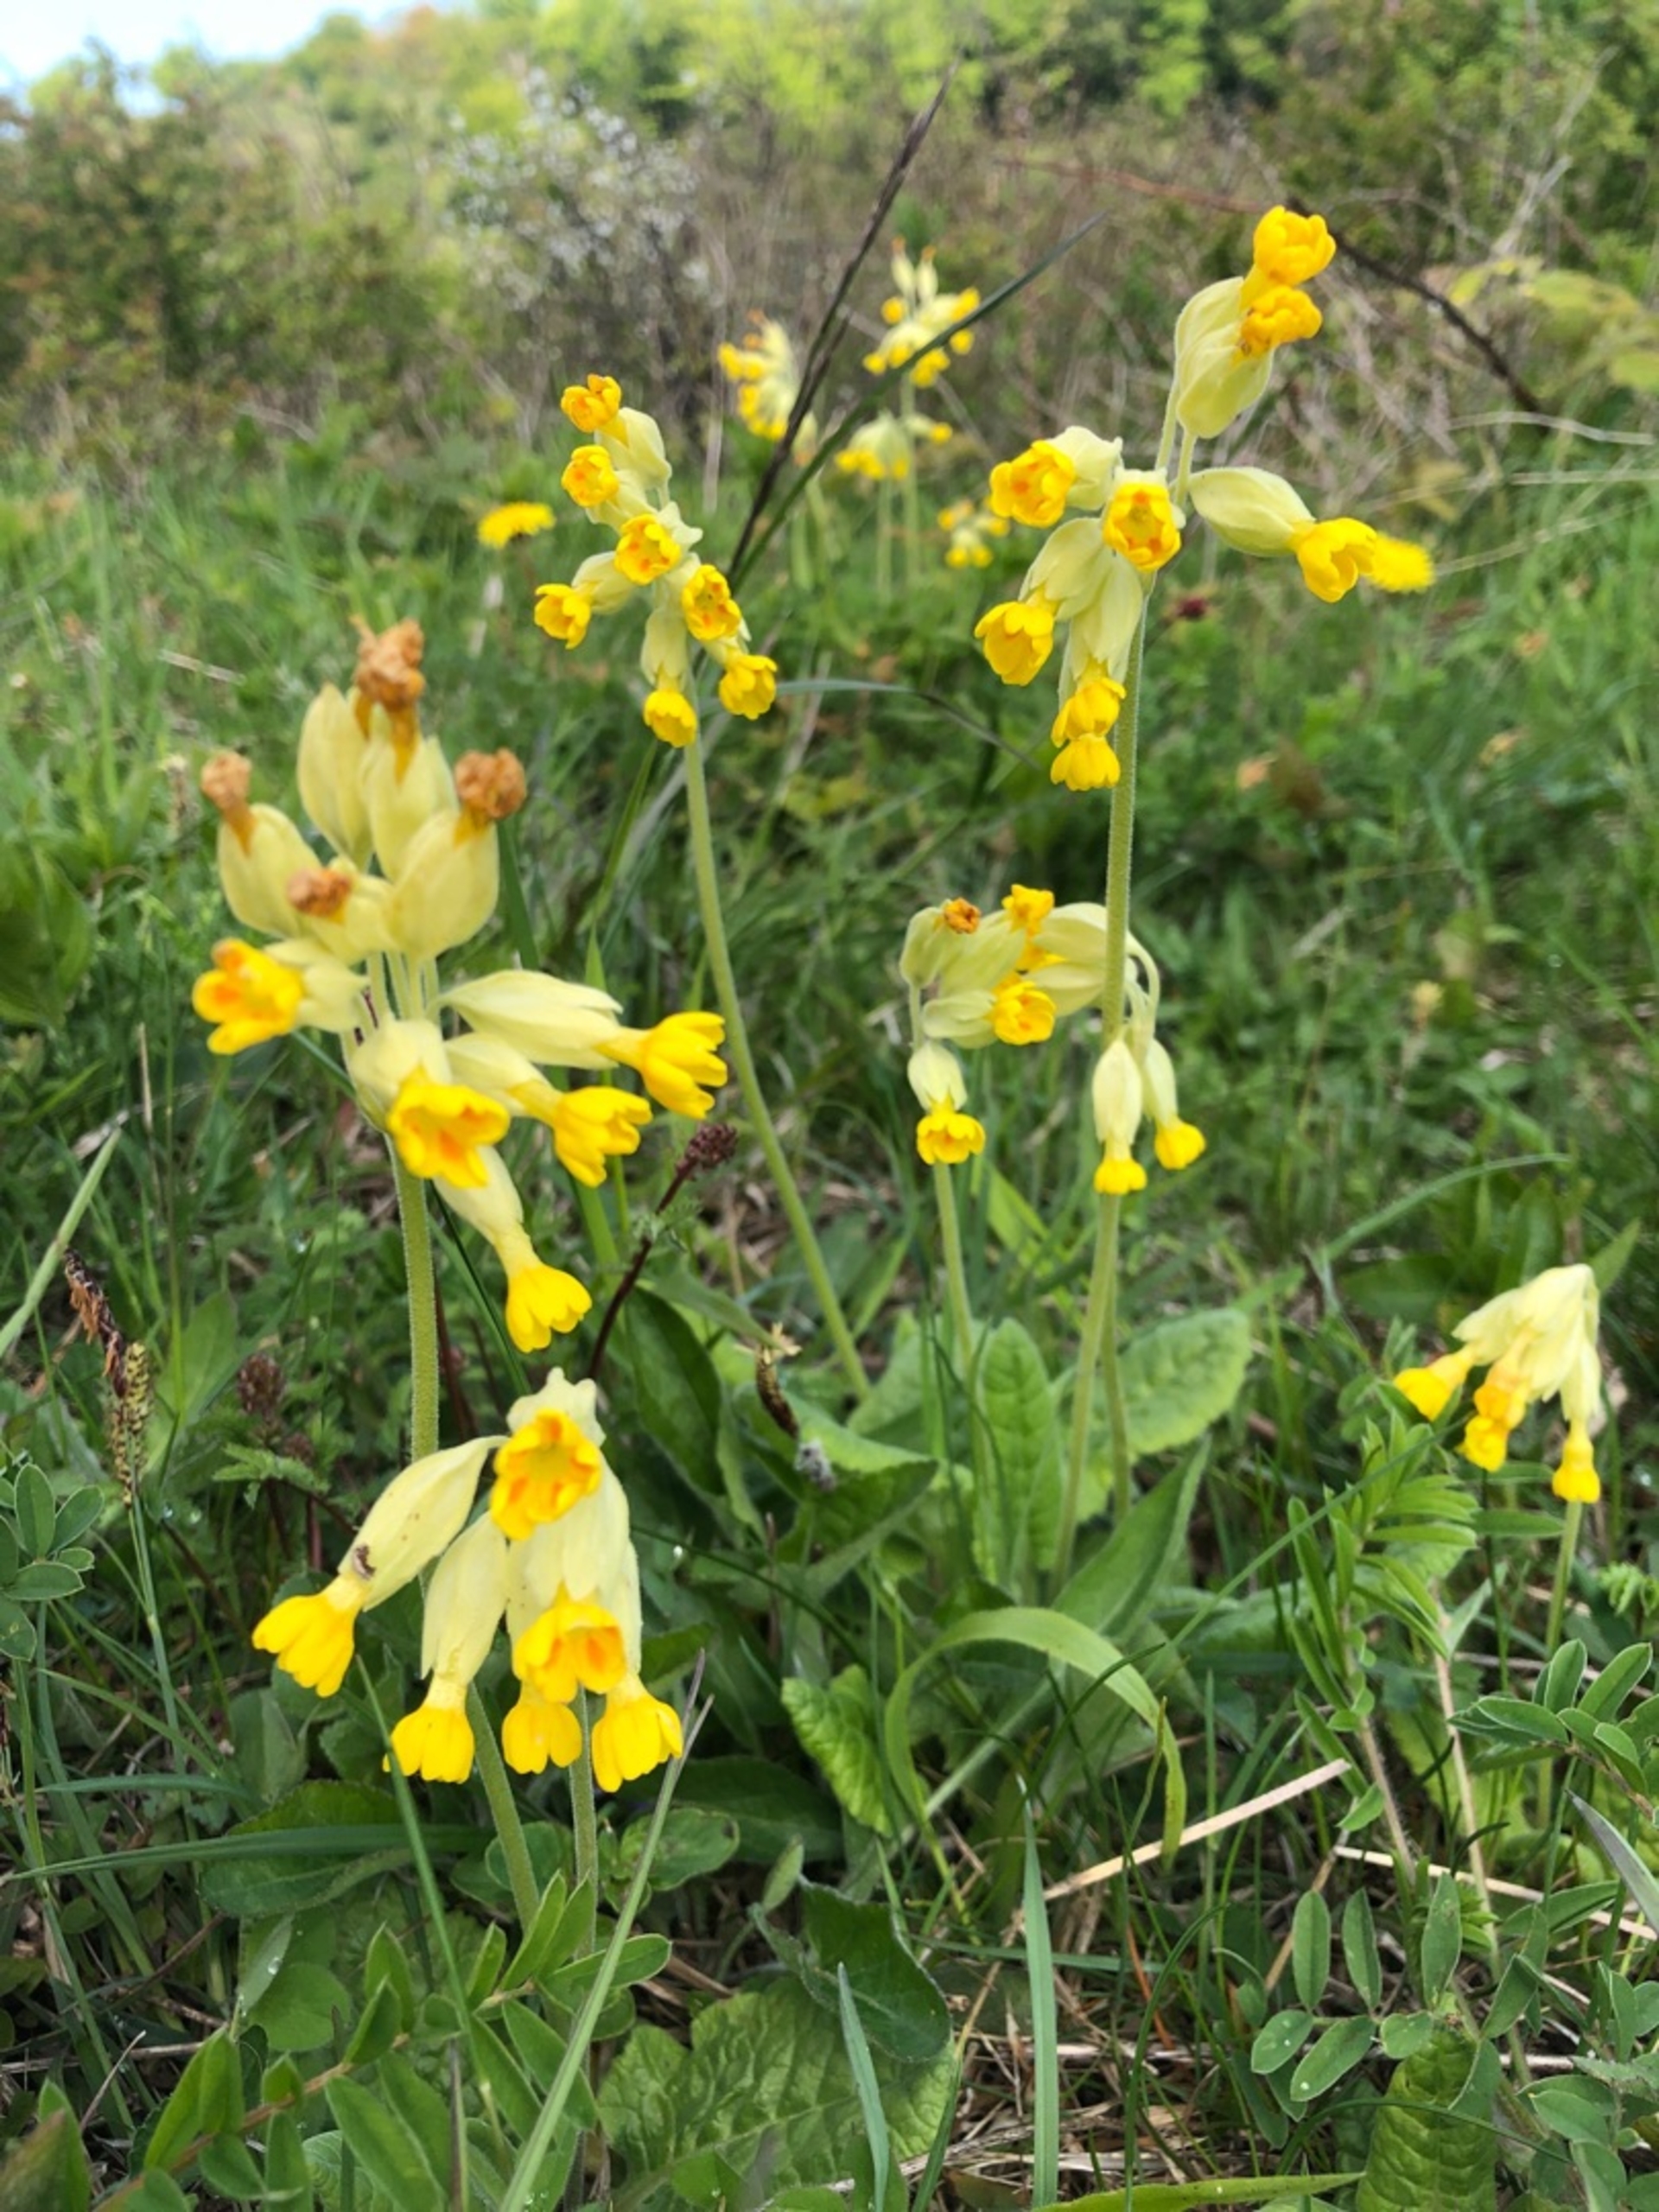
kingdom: Plantae
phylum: Tracheophyta
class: Magnoliopsida
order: Ericales
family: Primulaceae
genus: Primula
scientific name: Primula veris
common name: Hulkravet kodriver
